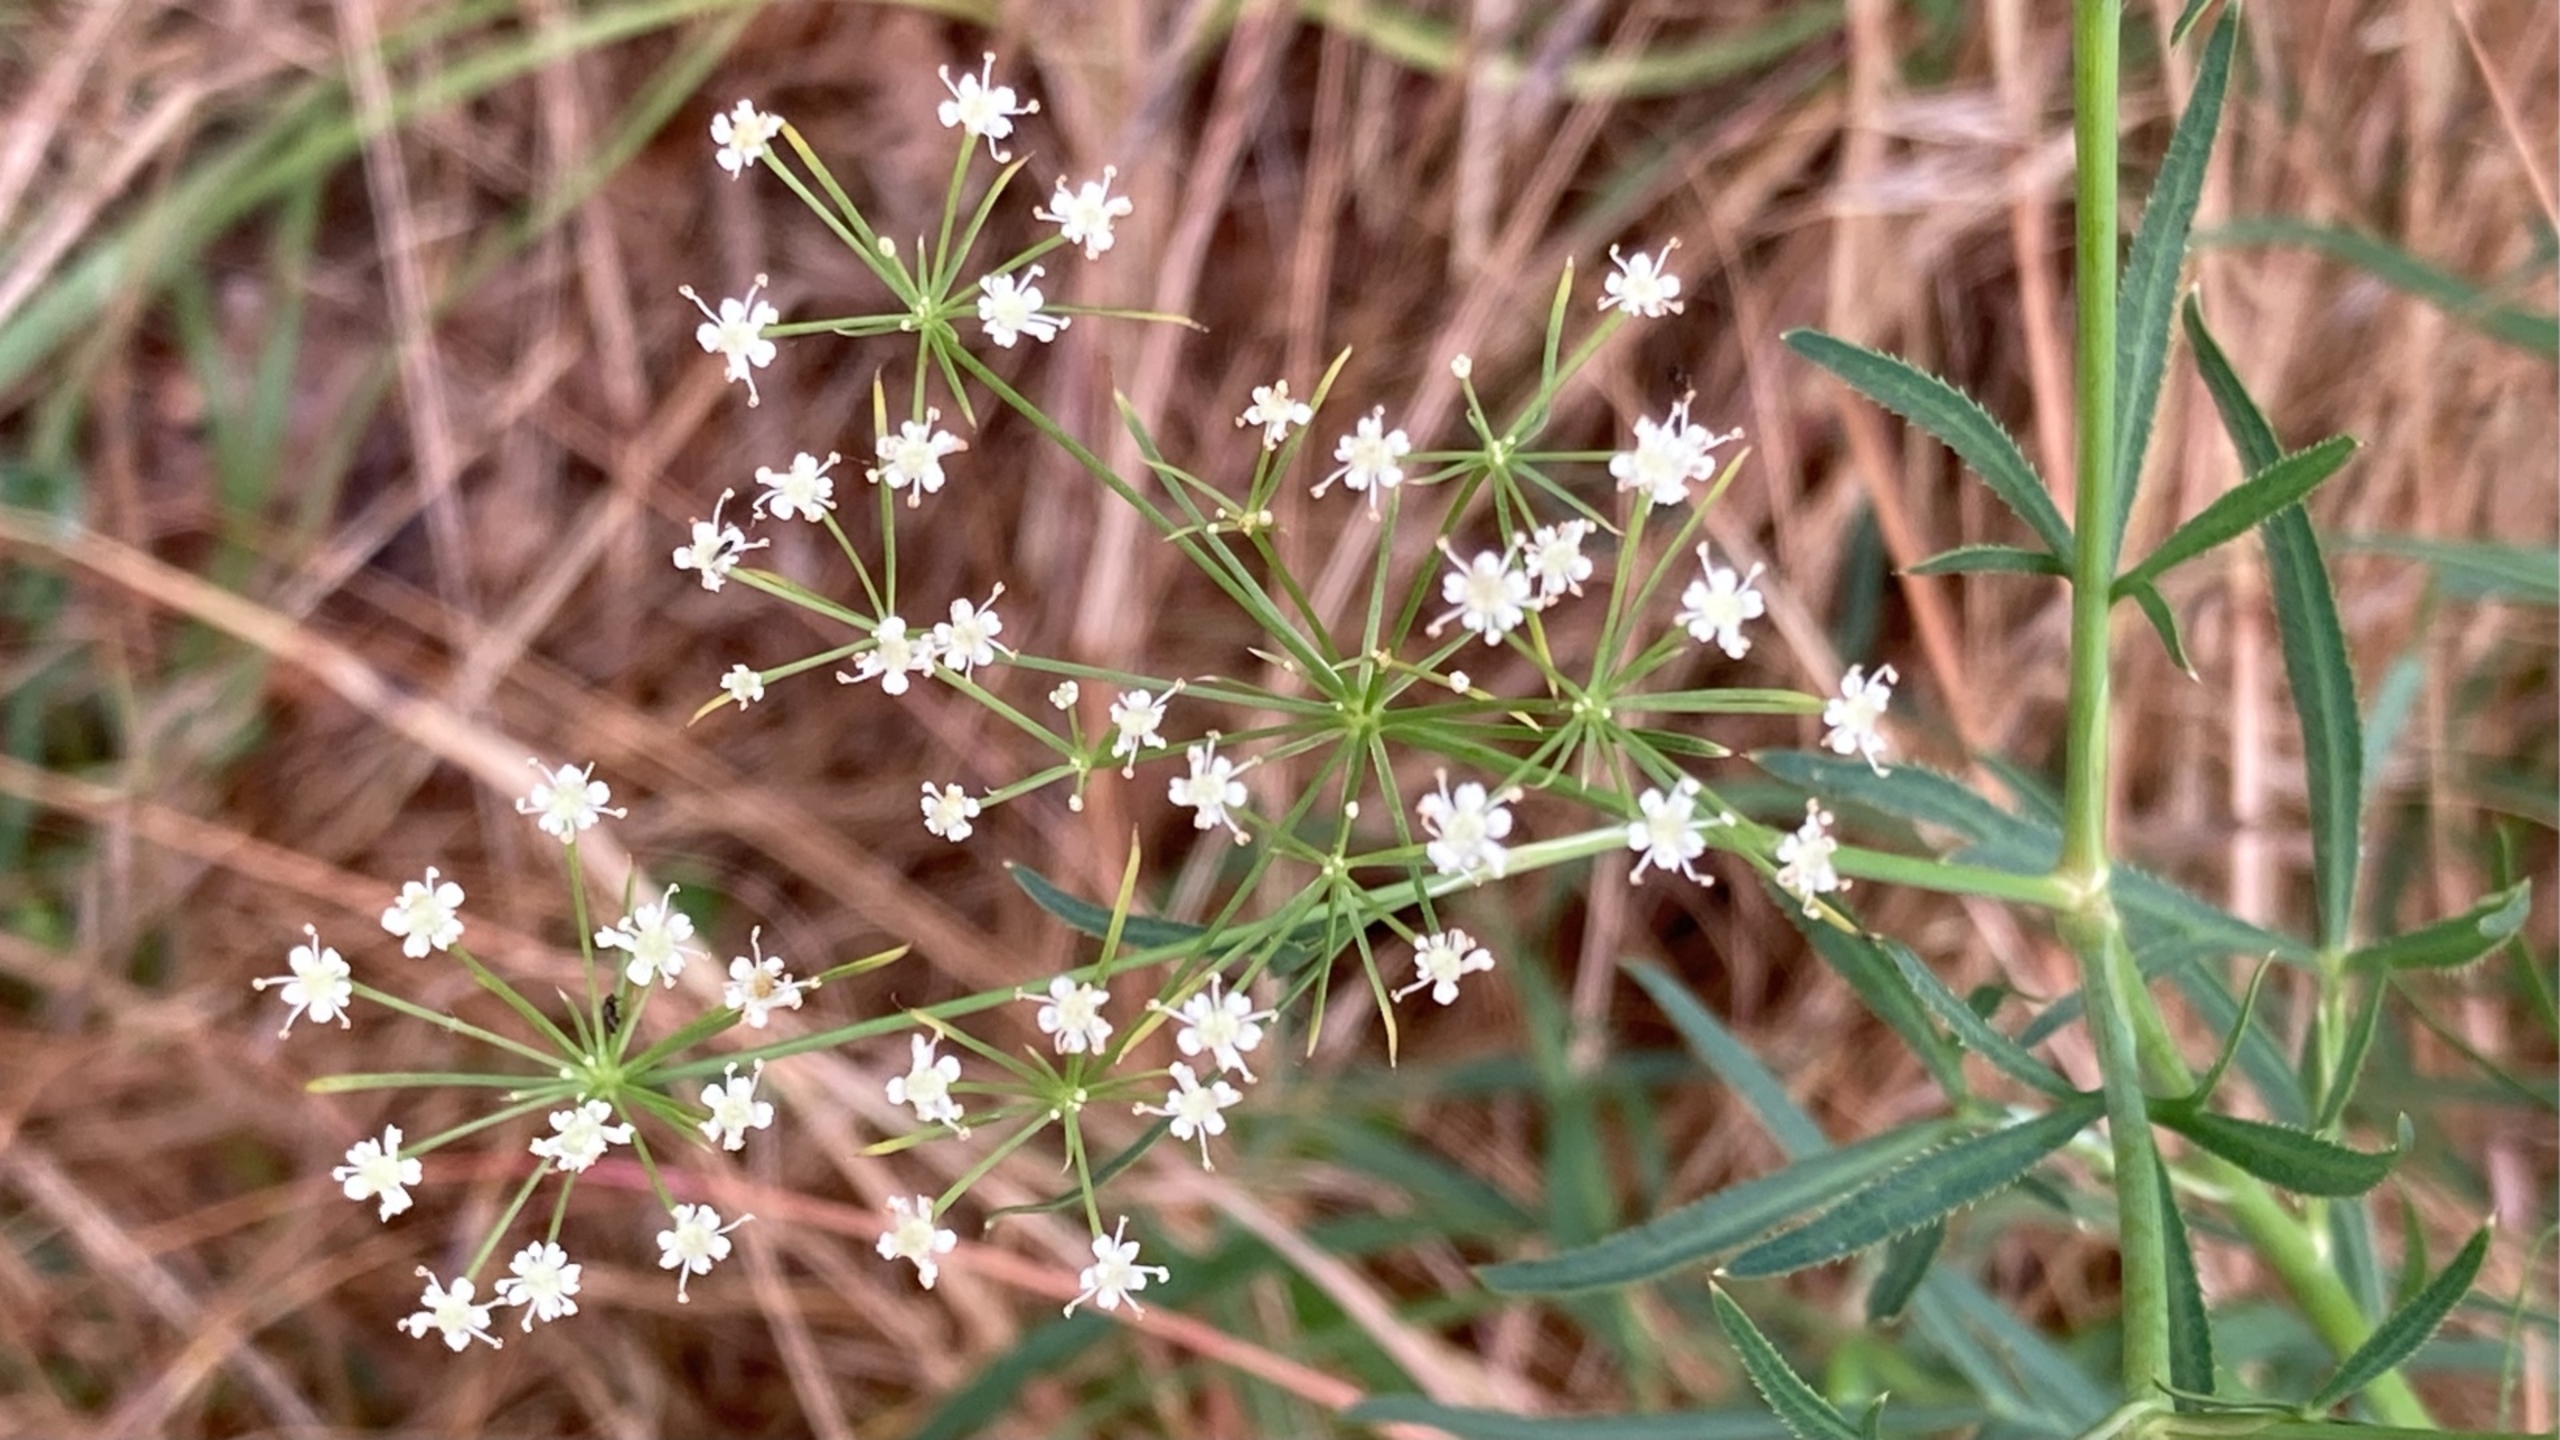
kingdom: Plantae
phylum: Tracheophyta
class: Magnoliopsida
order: Apiales
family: Apiaceae
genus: Falcaria
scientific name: Falcaria vulgaris
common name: Seglblad
